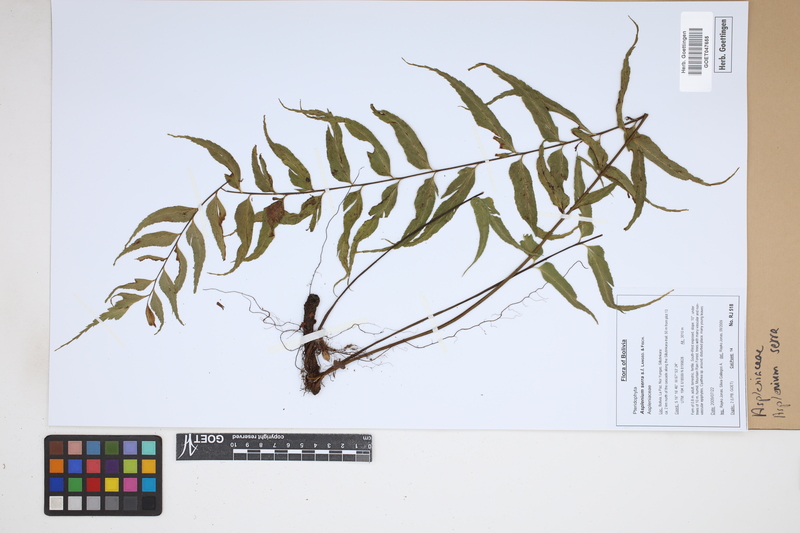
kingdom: Plantae
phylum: Tracheophyta
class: Polypodiopsida
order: Polypodiales
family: Aspleniaceae
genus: Asplenium
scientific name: Asplenium serra
